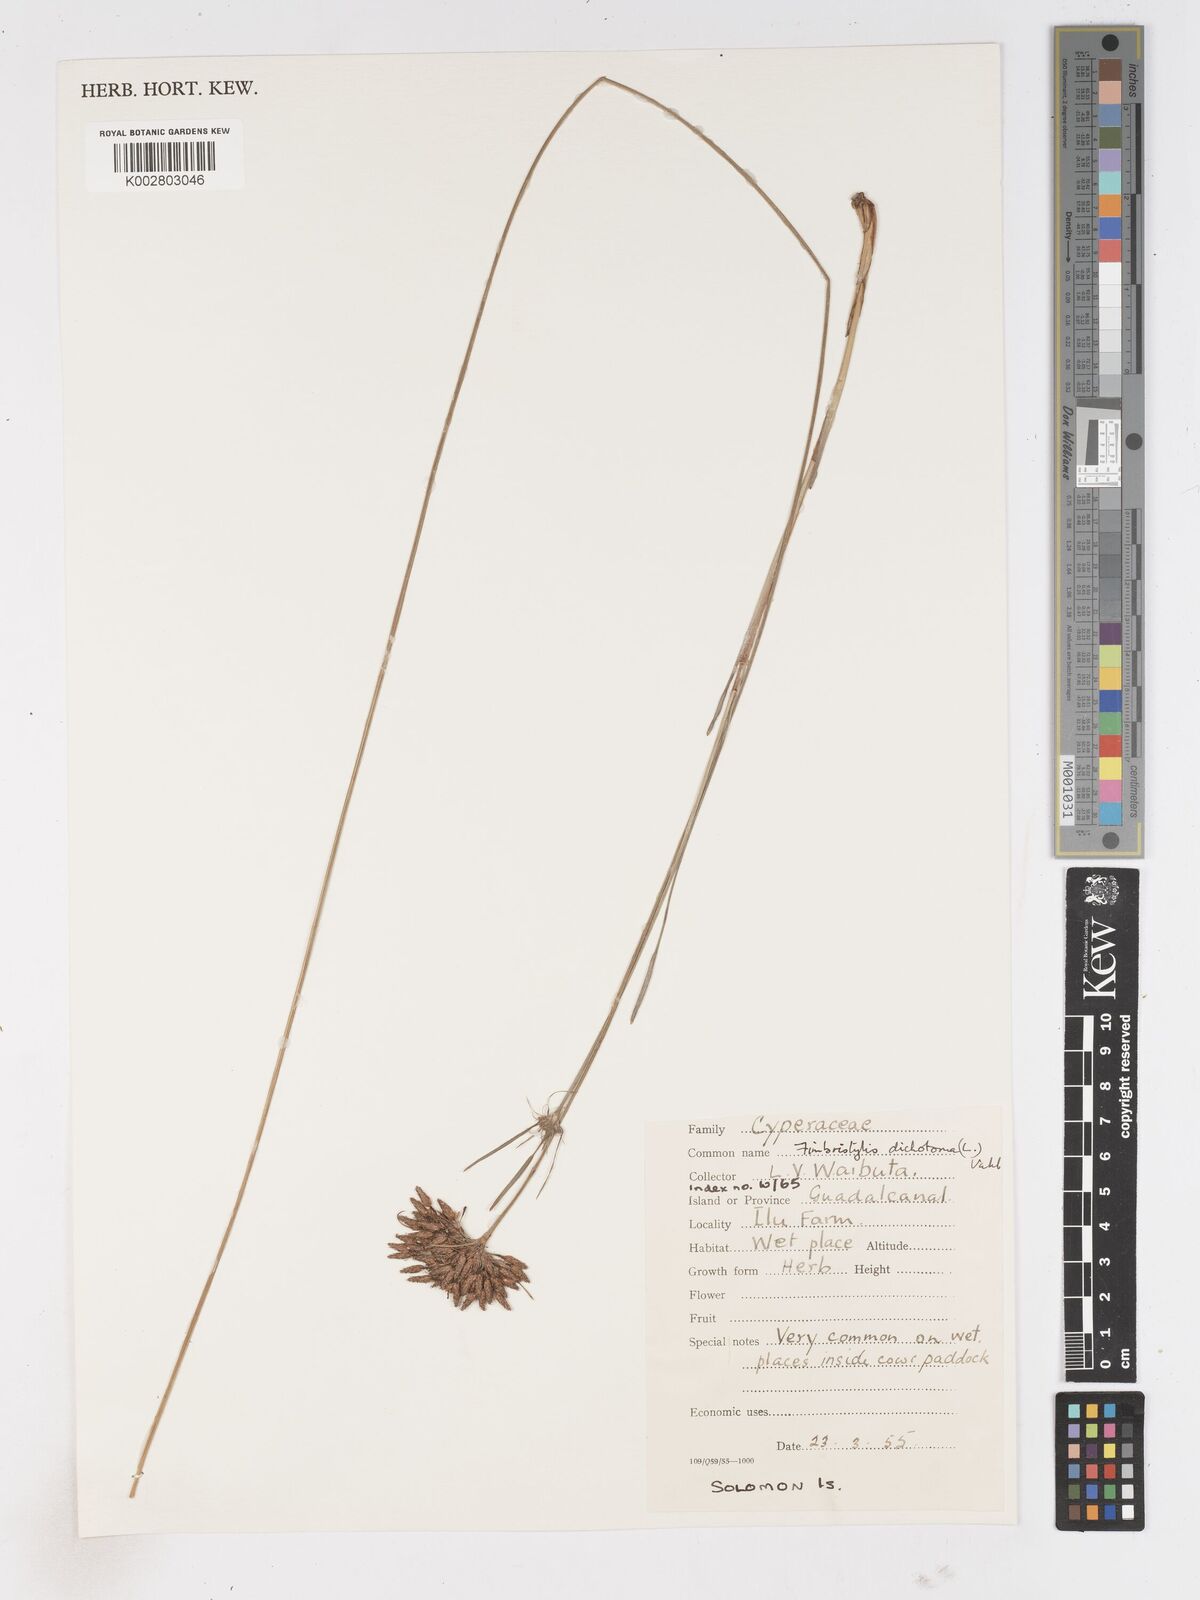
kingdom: Plantae
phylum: Tracheophyta
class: Liliopsida
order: Poales
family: Cyperaceae
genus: Fimbristylis
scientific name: Fimbristylis dichotoma
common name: Forked fimbry
